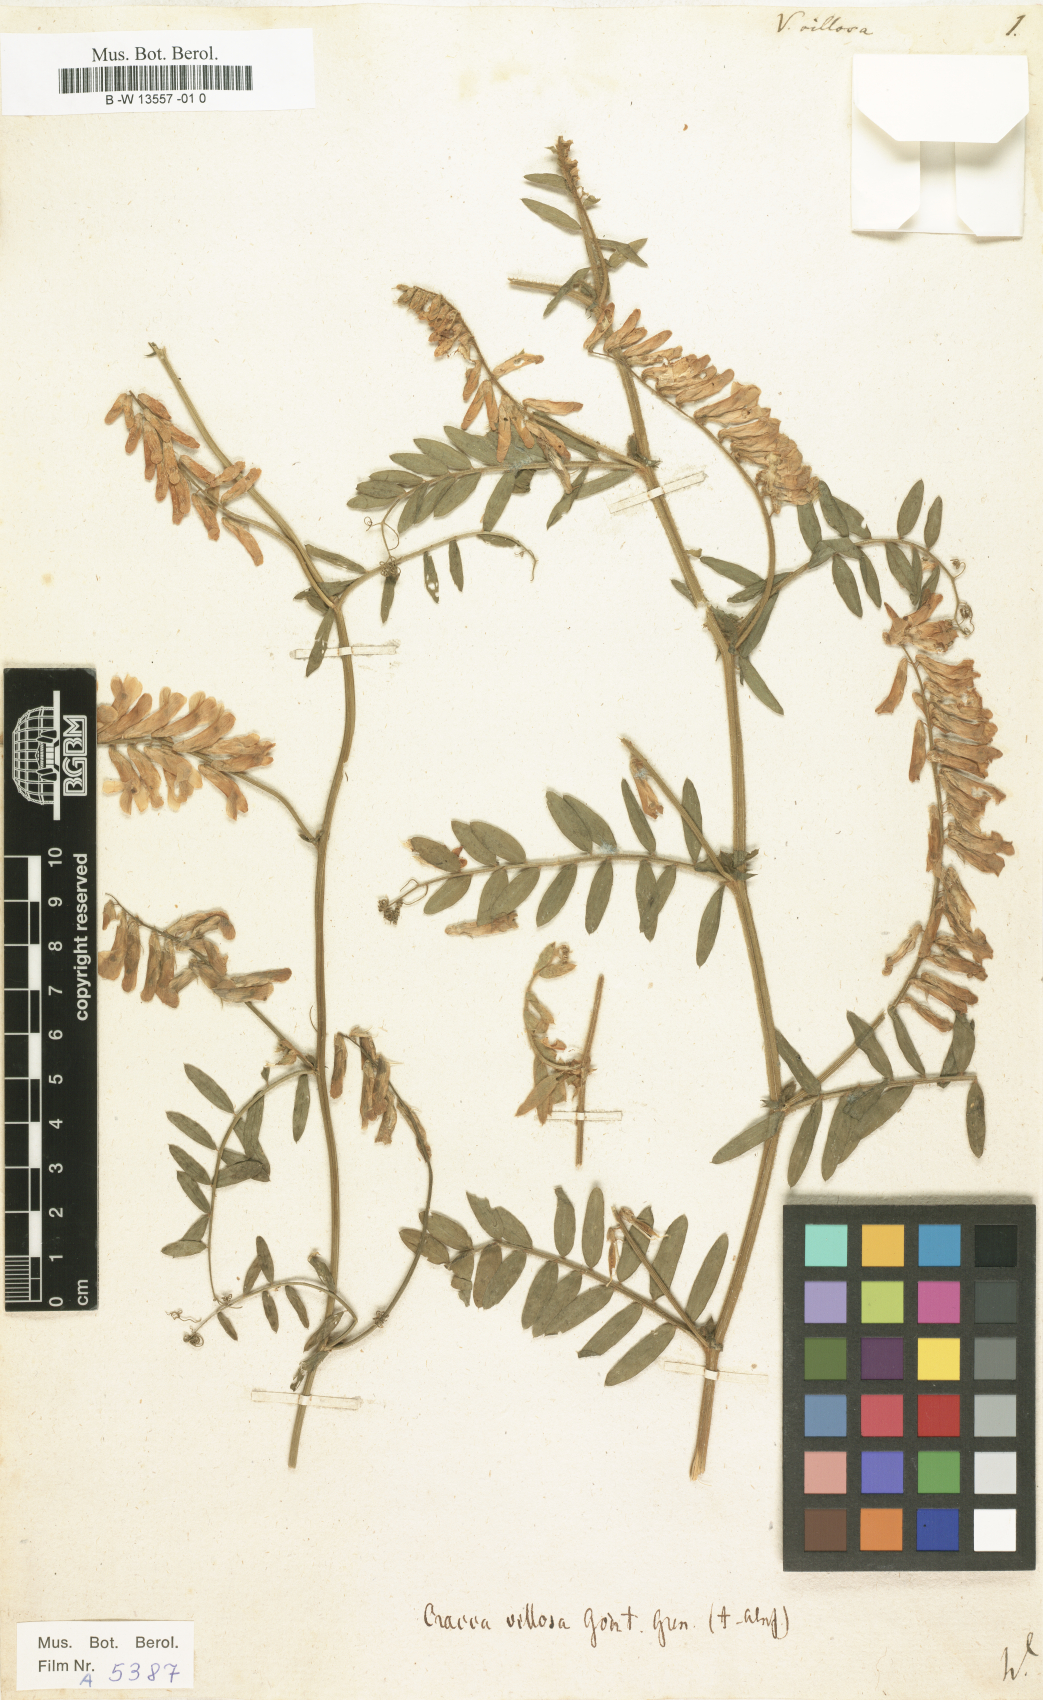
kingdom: Plantae
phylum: Tracheophyta
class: Magnoliopsida
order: Fabales
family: Fabaceae
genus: Vicia
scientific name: Vicia villosa
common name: Fodder vetch
